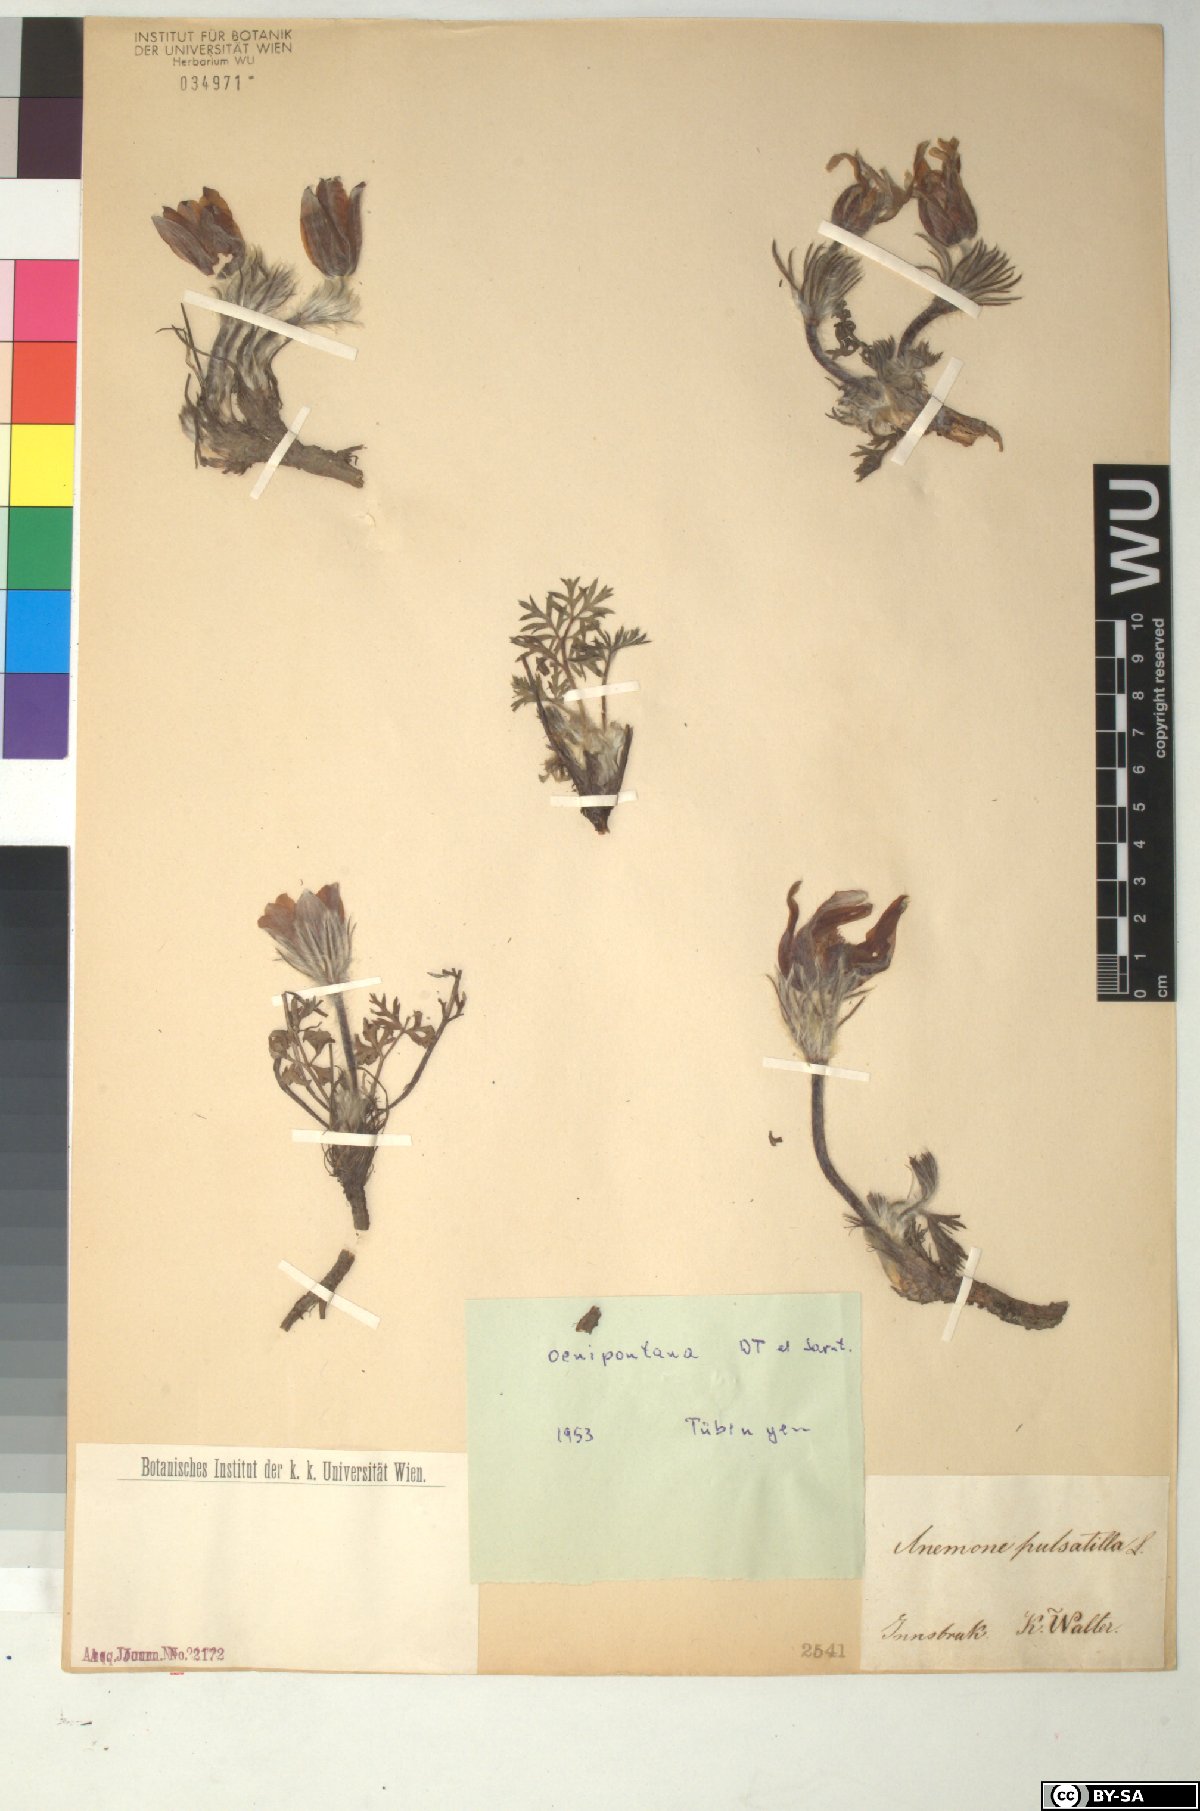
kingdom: Plantae
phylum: Tracheophyta
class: Magnoliopsida
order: Ranunculales
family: Ranunculaceae
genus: Pulsatilla
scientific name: Pulsatilla vulgaris
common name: Pasqueflower
